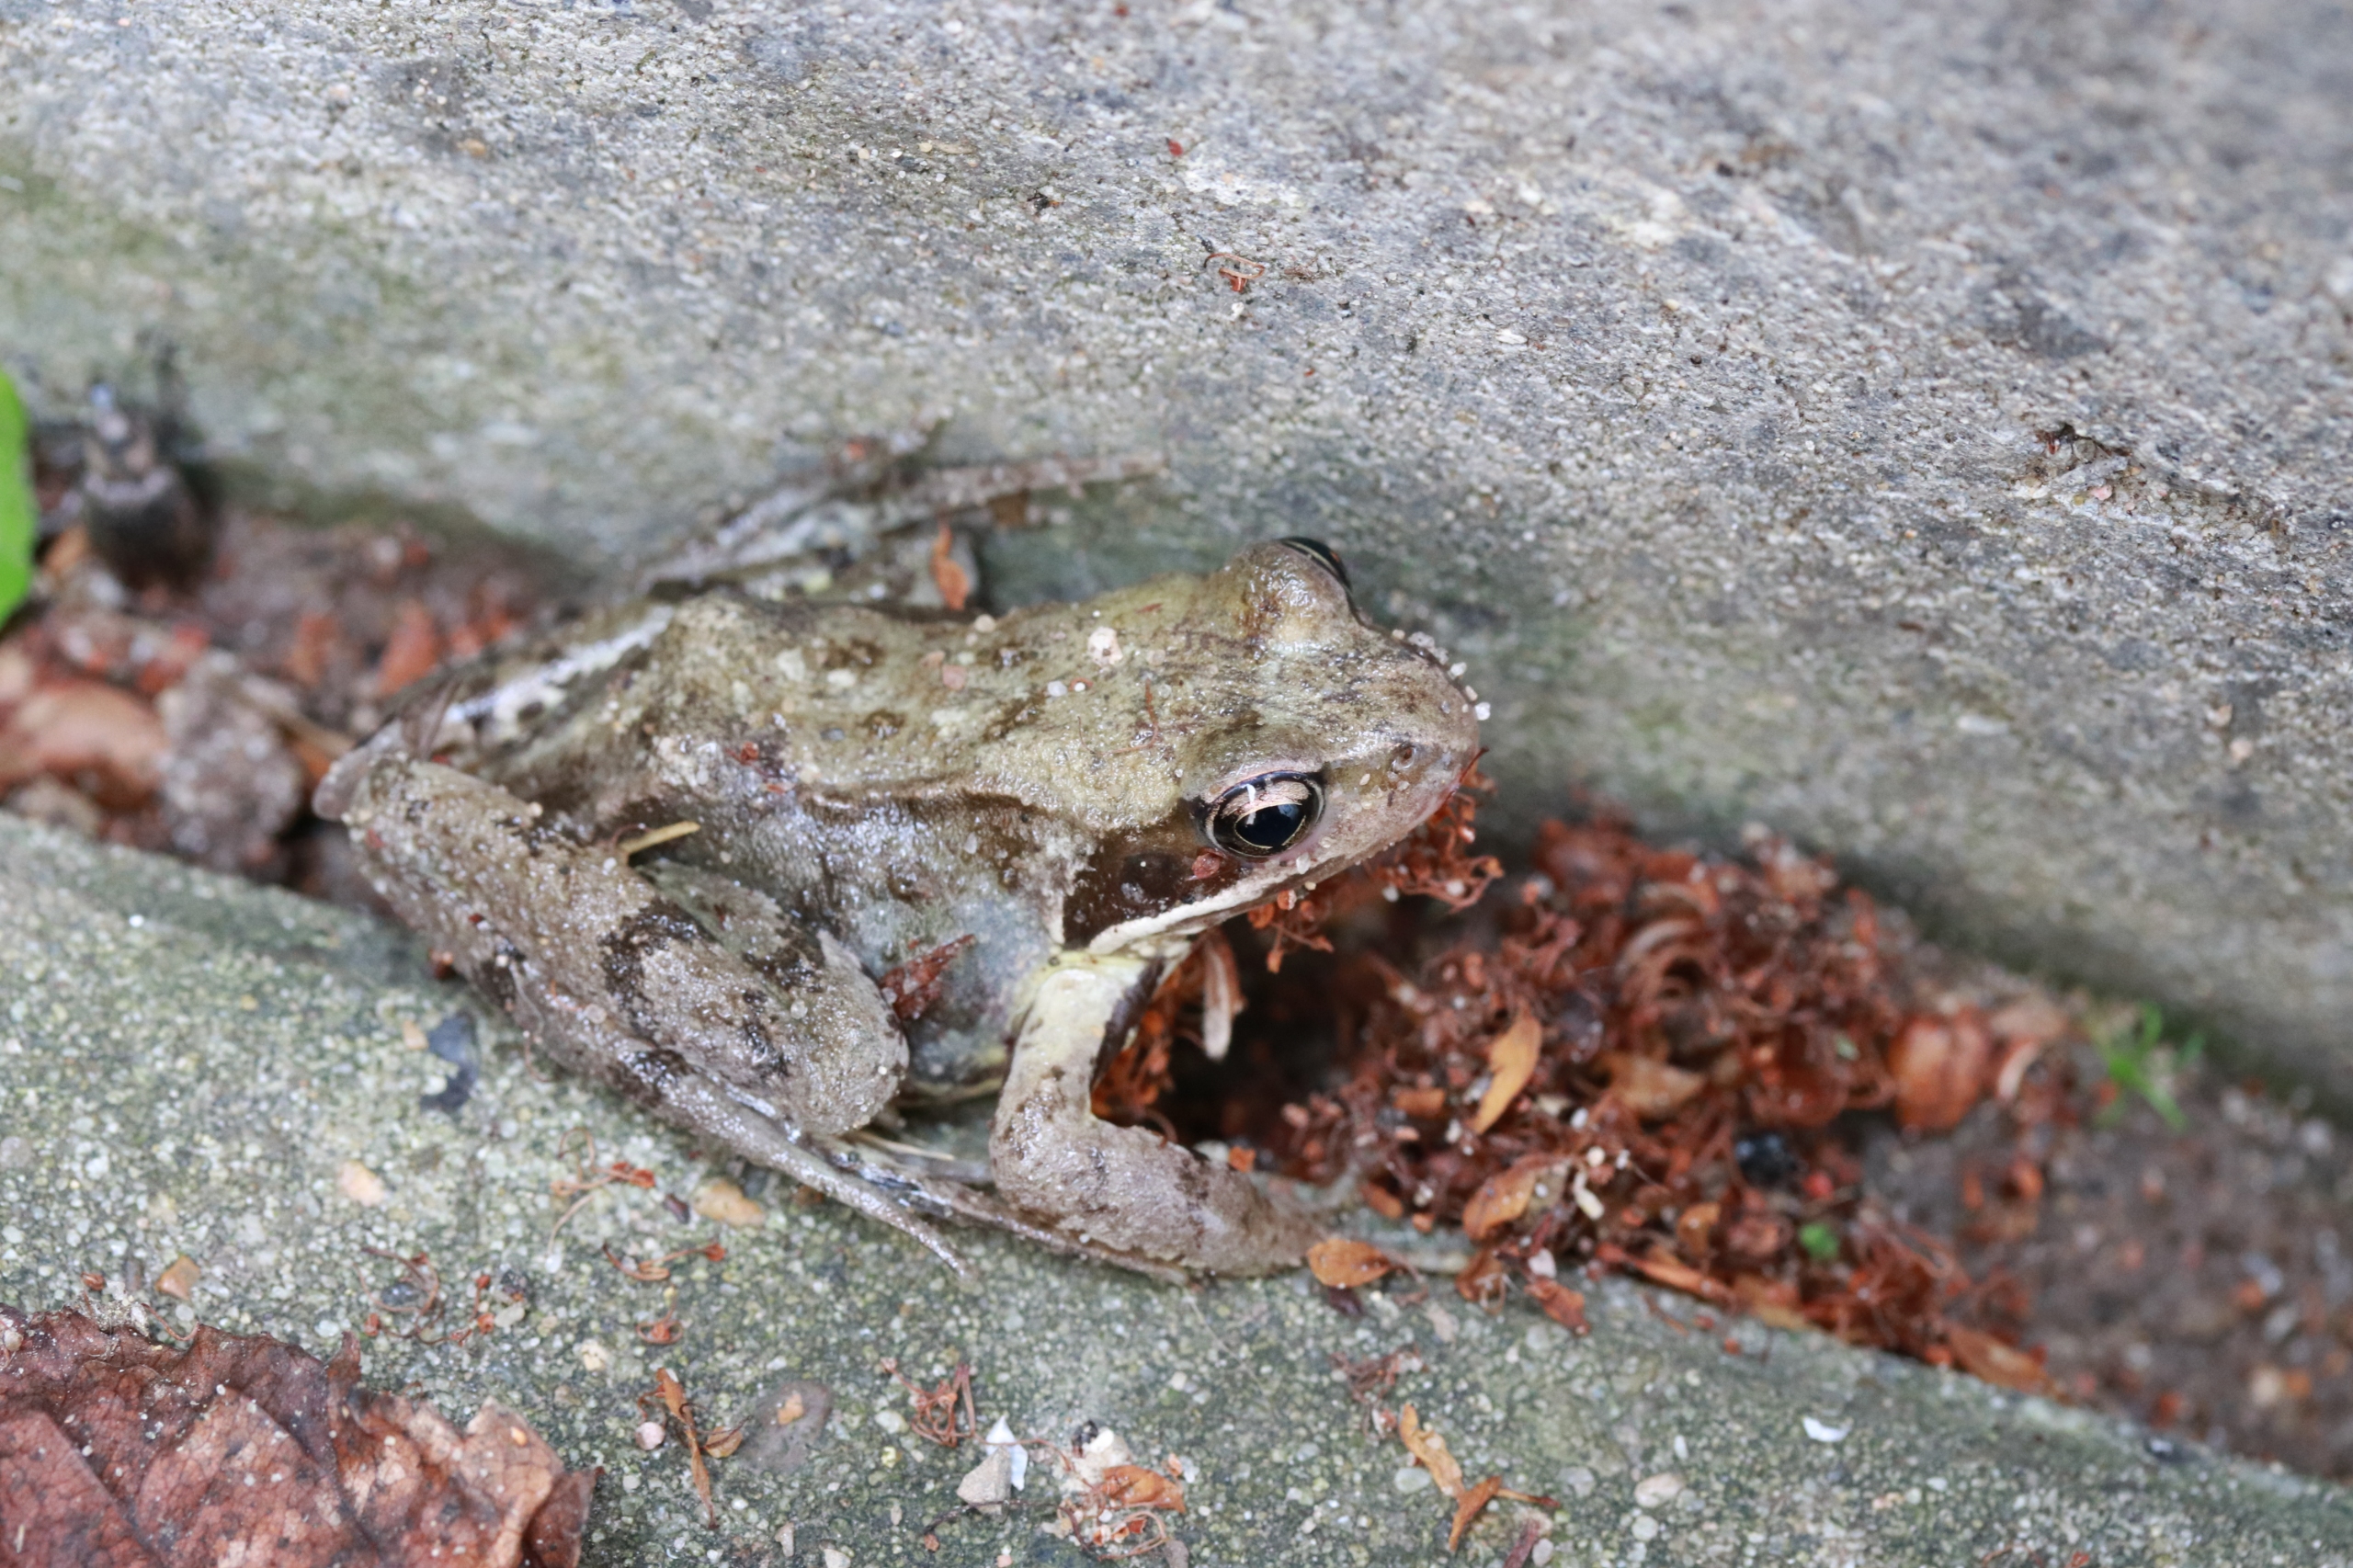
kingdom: Animalia
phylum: Chordata
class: Amphibia
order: Anura
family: Ranidae
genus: Rana
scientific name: Rana temporaria
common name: Butsnudet frø
